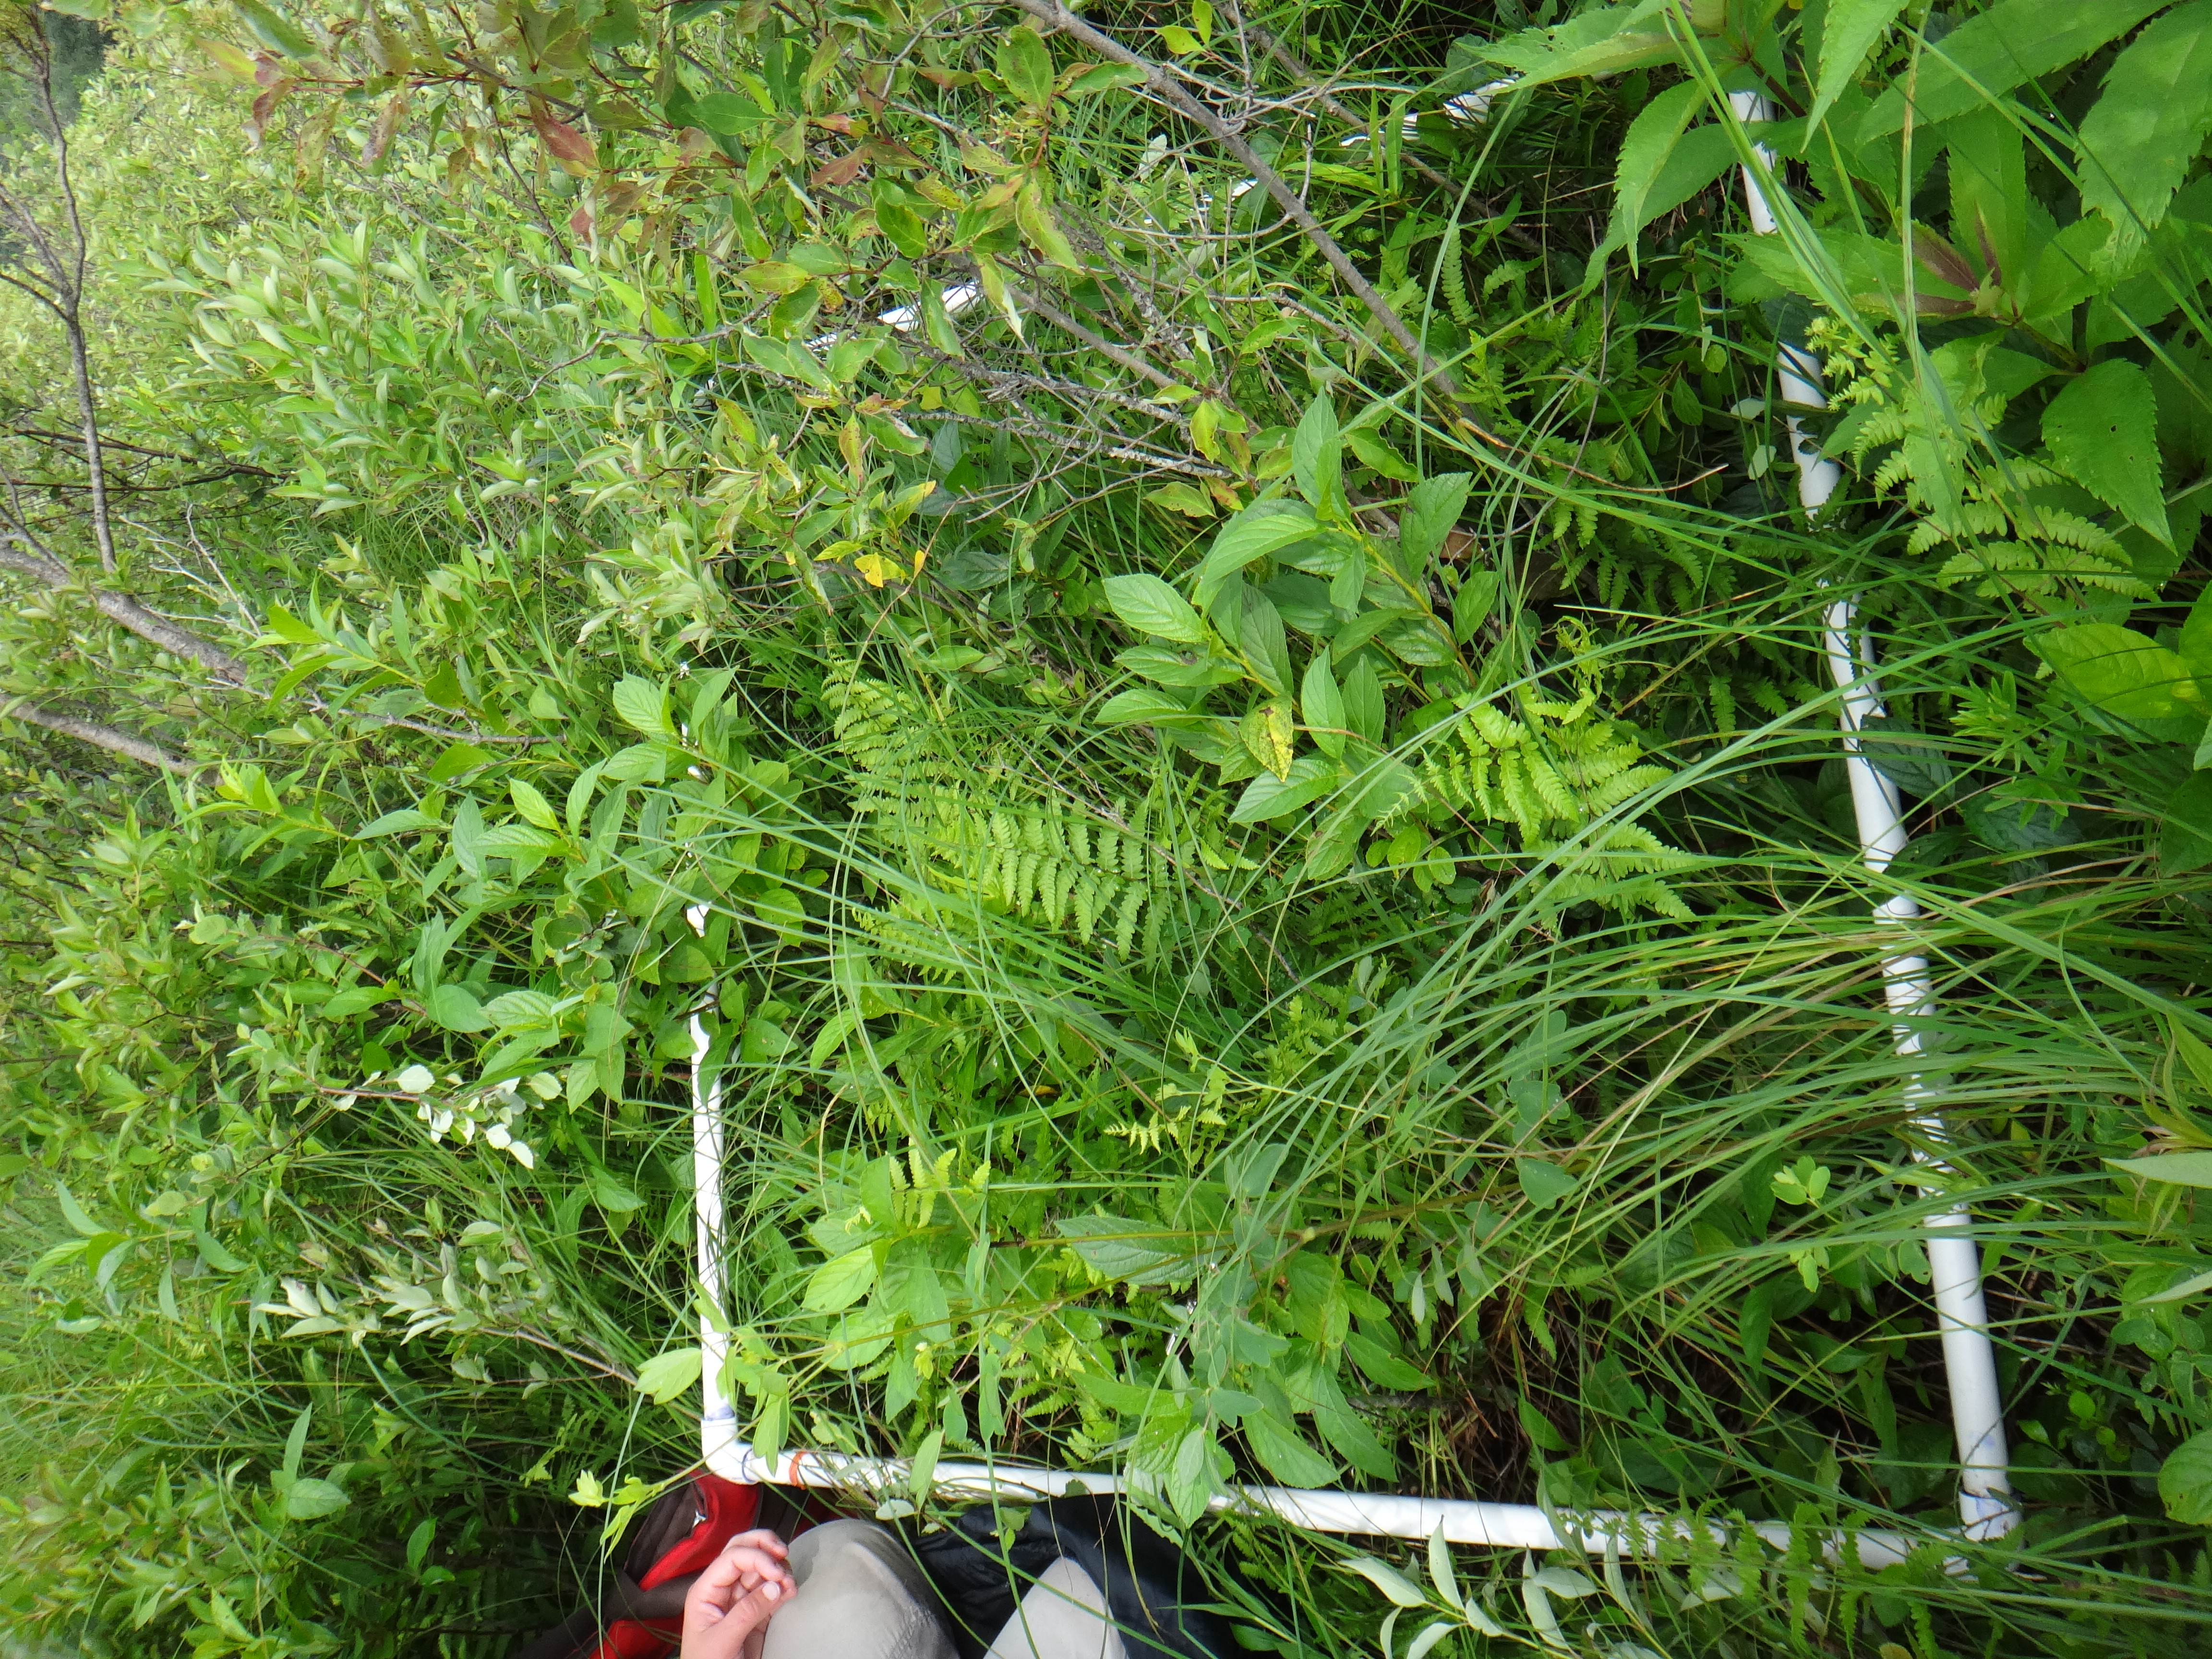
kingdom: Plantae
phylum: Tracheophyta
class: Magnoliopsida
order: Asterales
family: Asteraceae
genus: Symphyotrichum
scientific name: Symphyotrichum firmum
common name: Shining aster
